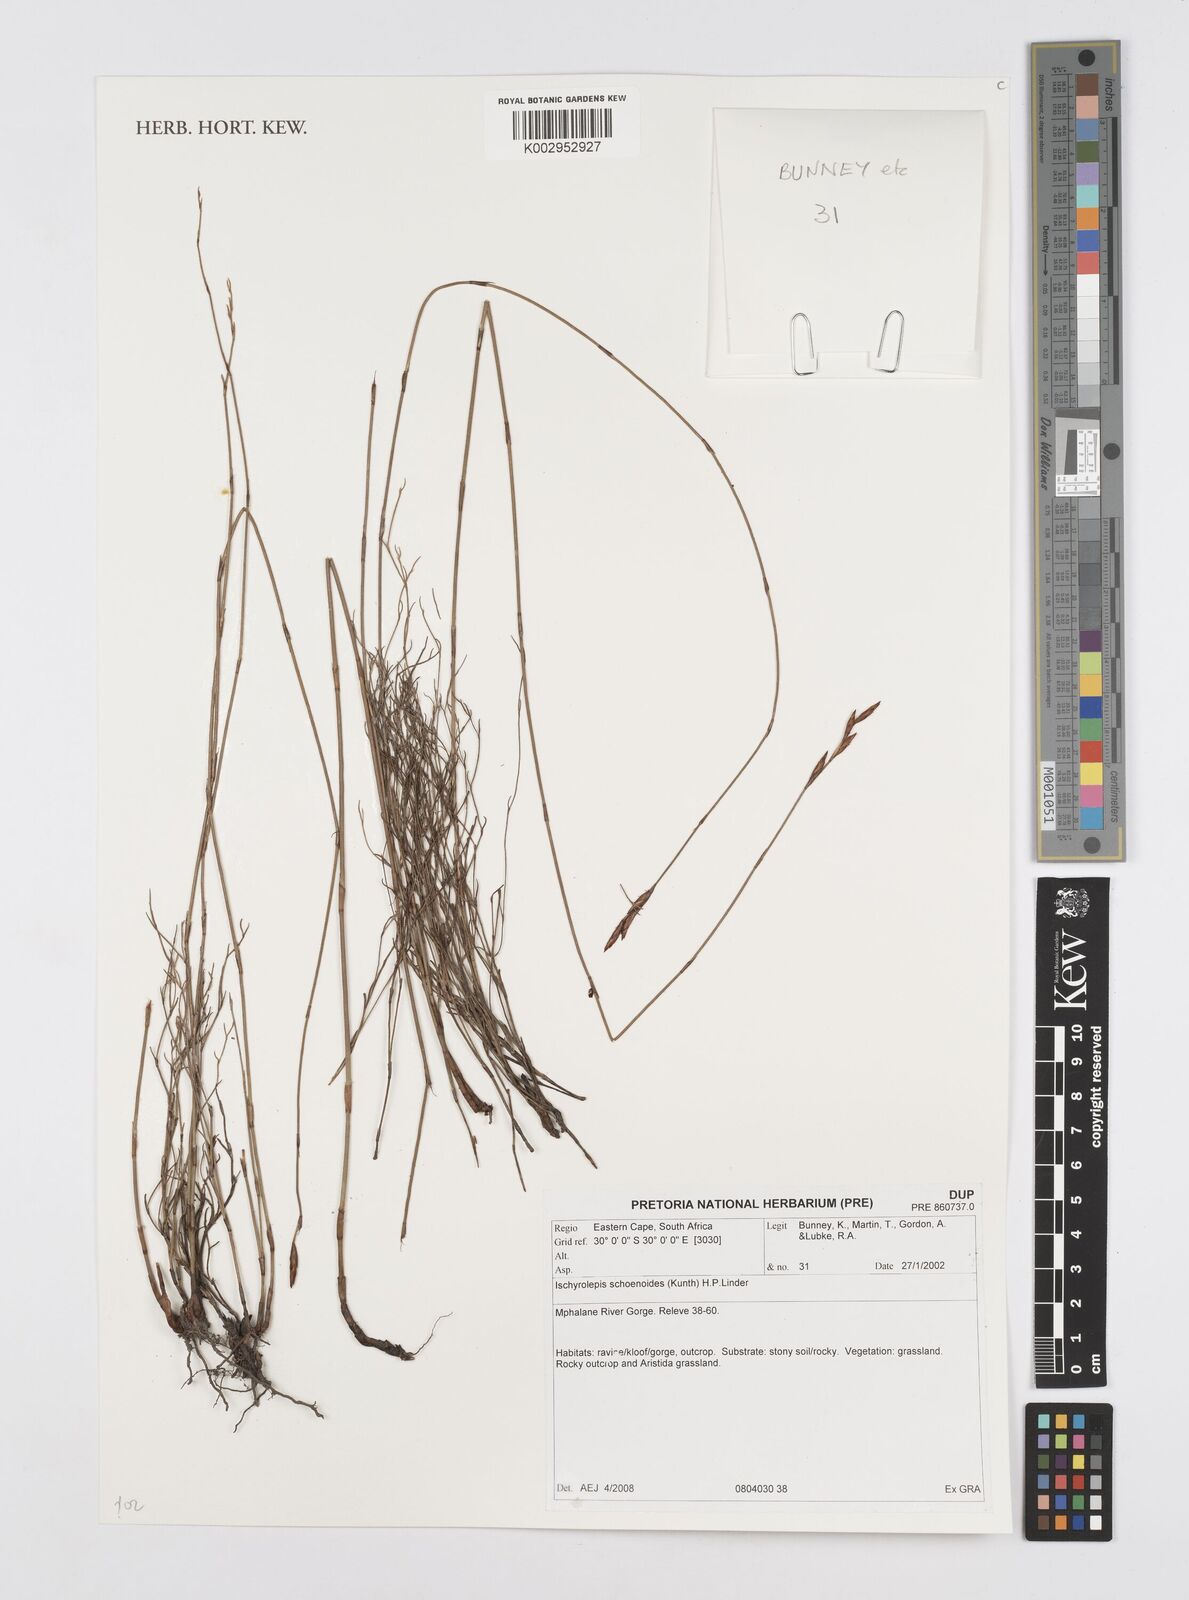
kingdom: Plantae
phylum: Tracheophyta
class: Liliopsida
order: Poales
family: Restionaceae
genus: Restio
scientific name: Restio schoenoides
